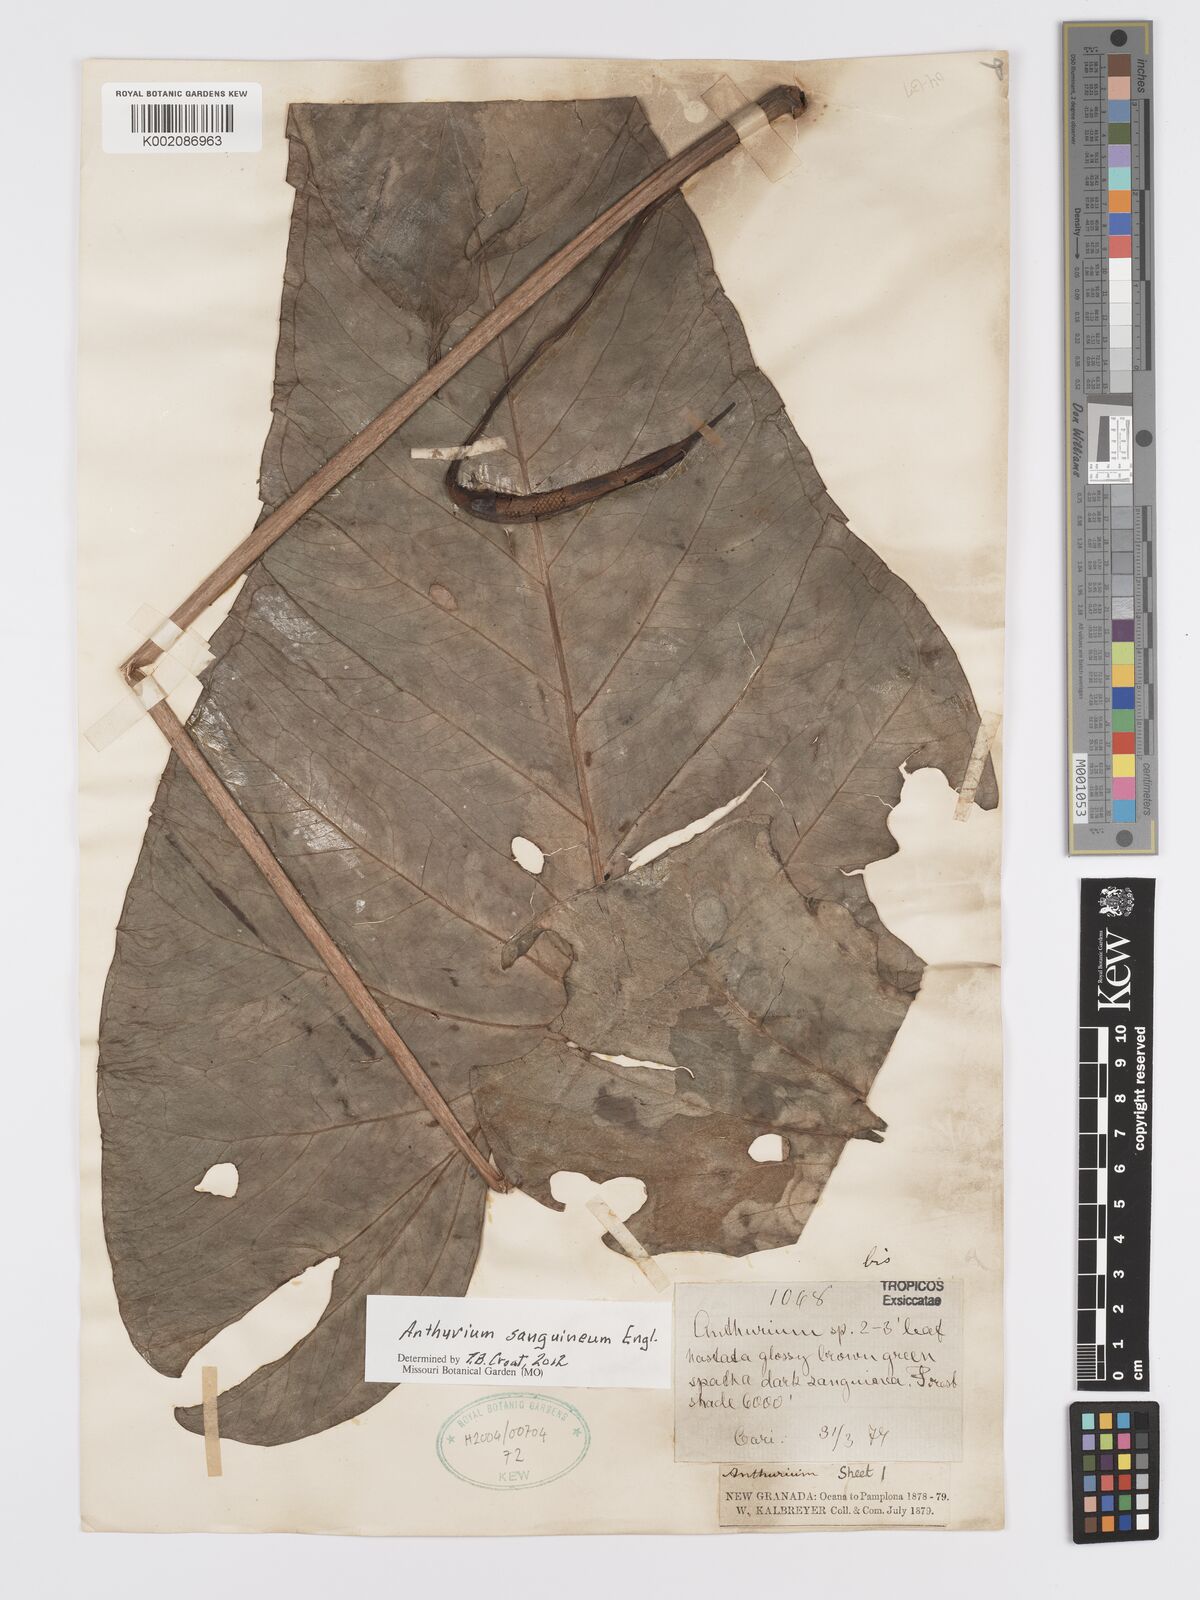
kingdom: Plantae
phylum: Tracheophyta
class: Liliopsida
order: Alismatales
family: Araceae
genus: Anthurium
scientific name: Anthurium sanguineum
